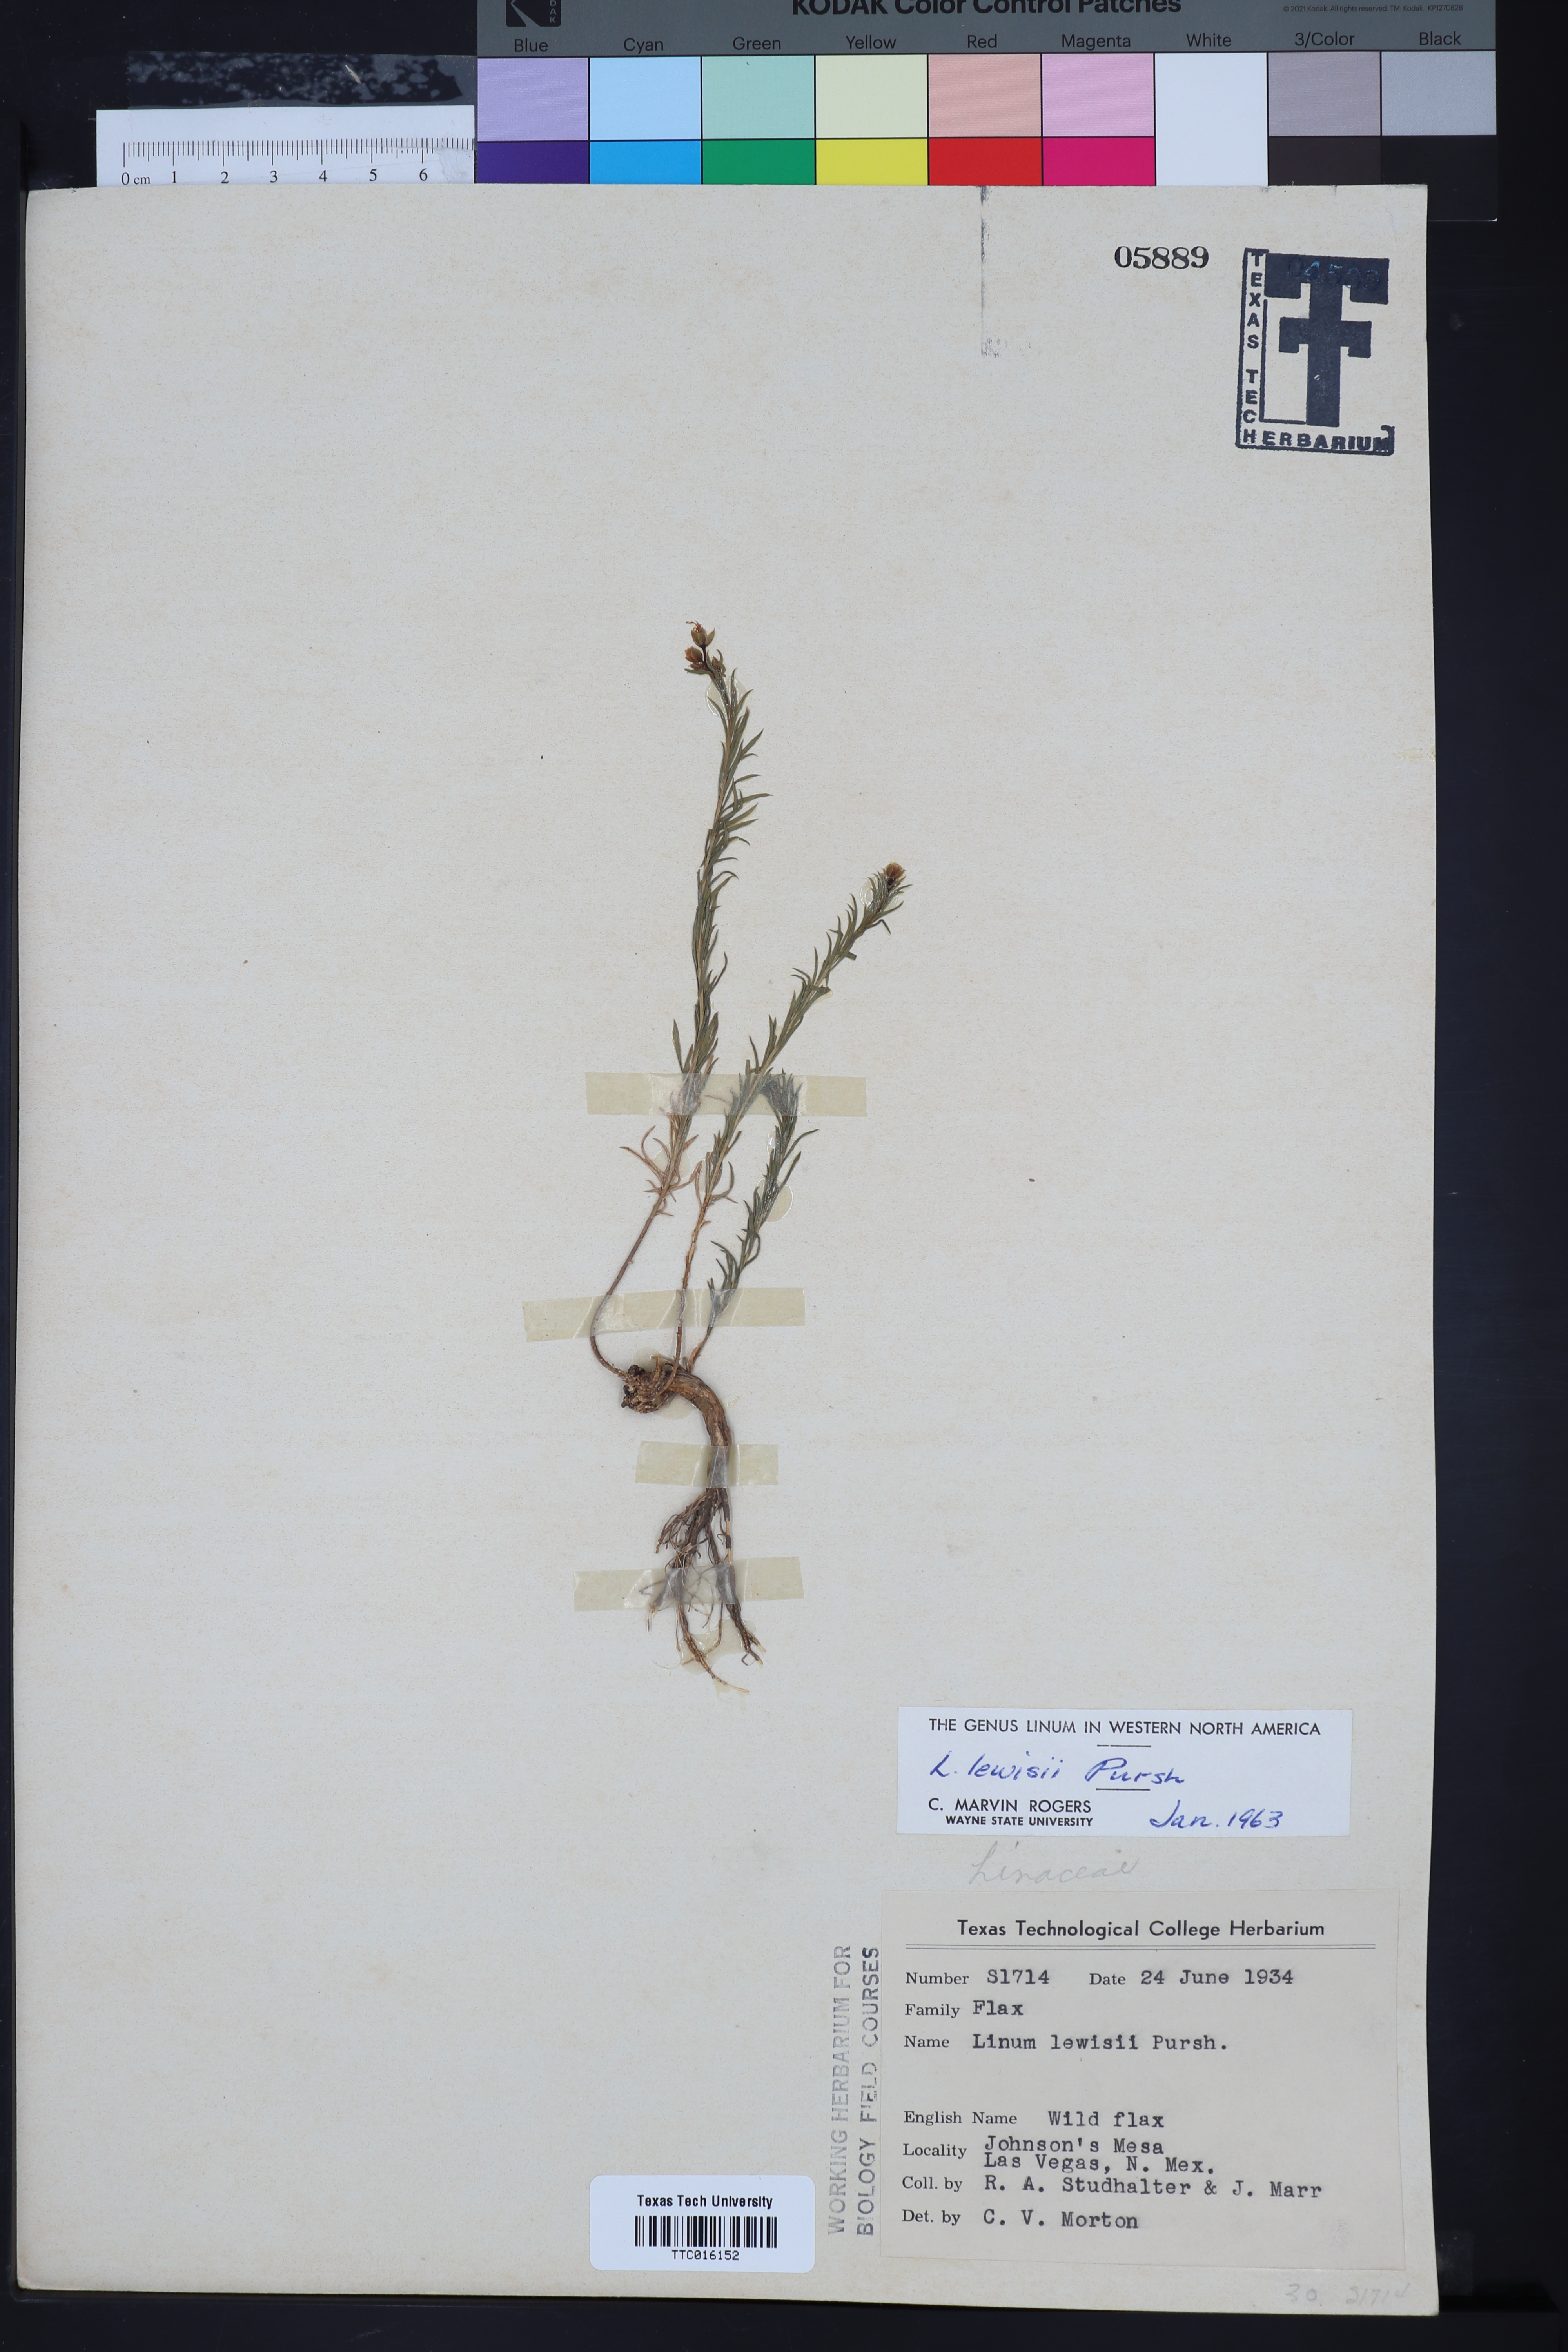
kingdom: Plantae
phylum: Tracheophyta
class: Magnoliopsida
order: Malpighiales
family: Linaceae
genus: Linum
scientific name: Linum lewisii
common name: Prairie flax
